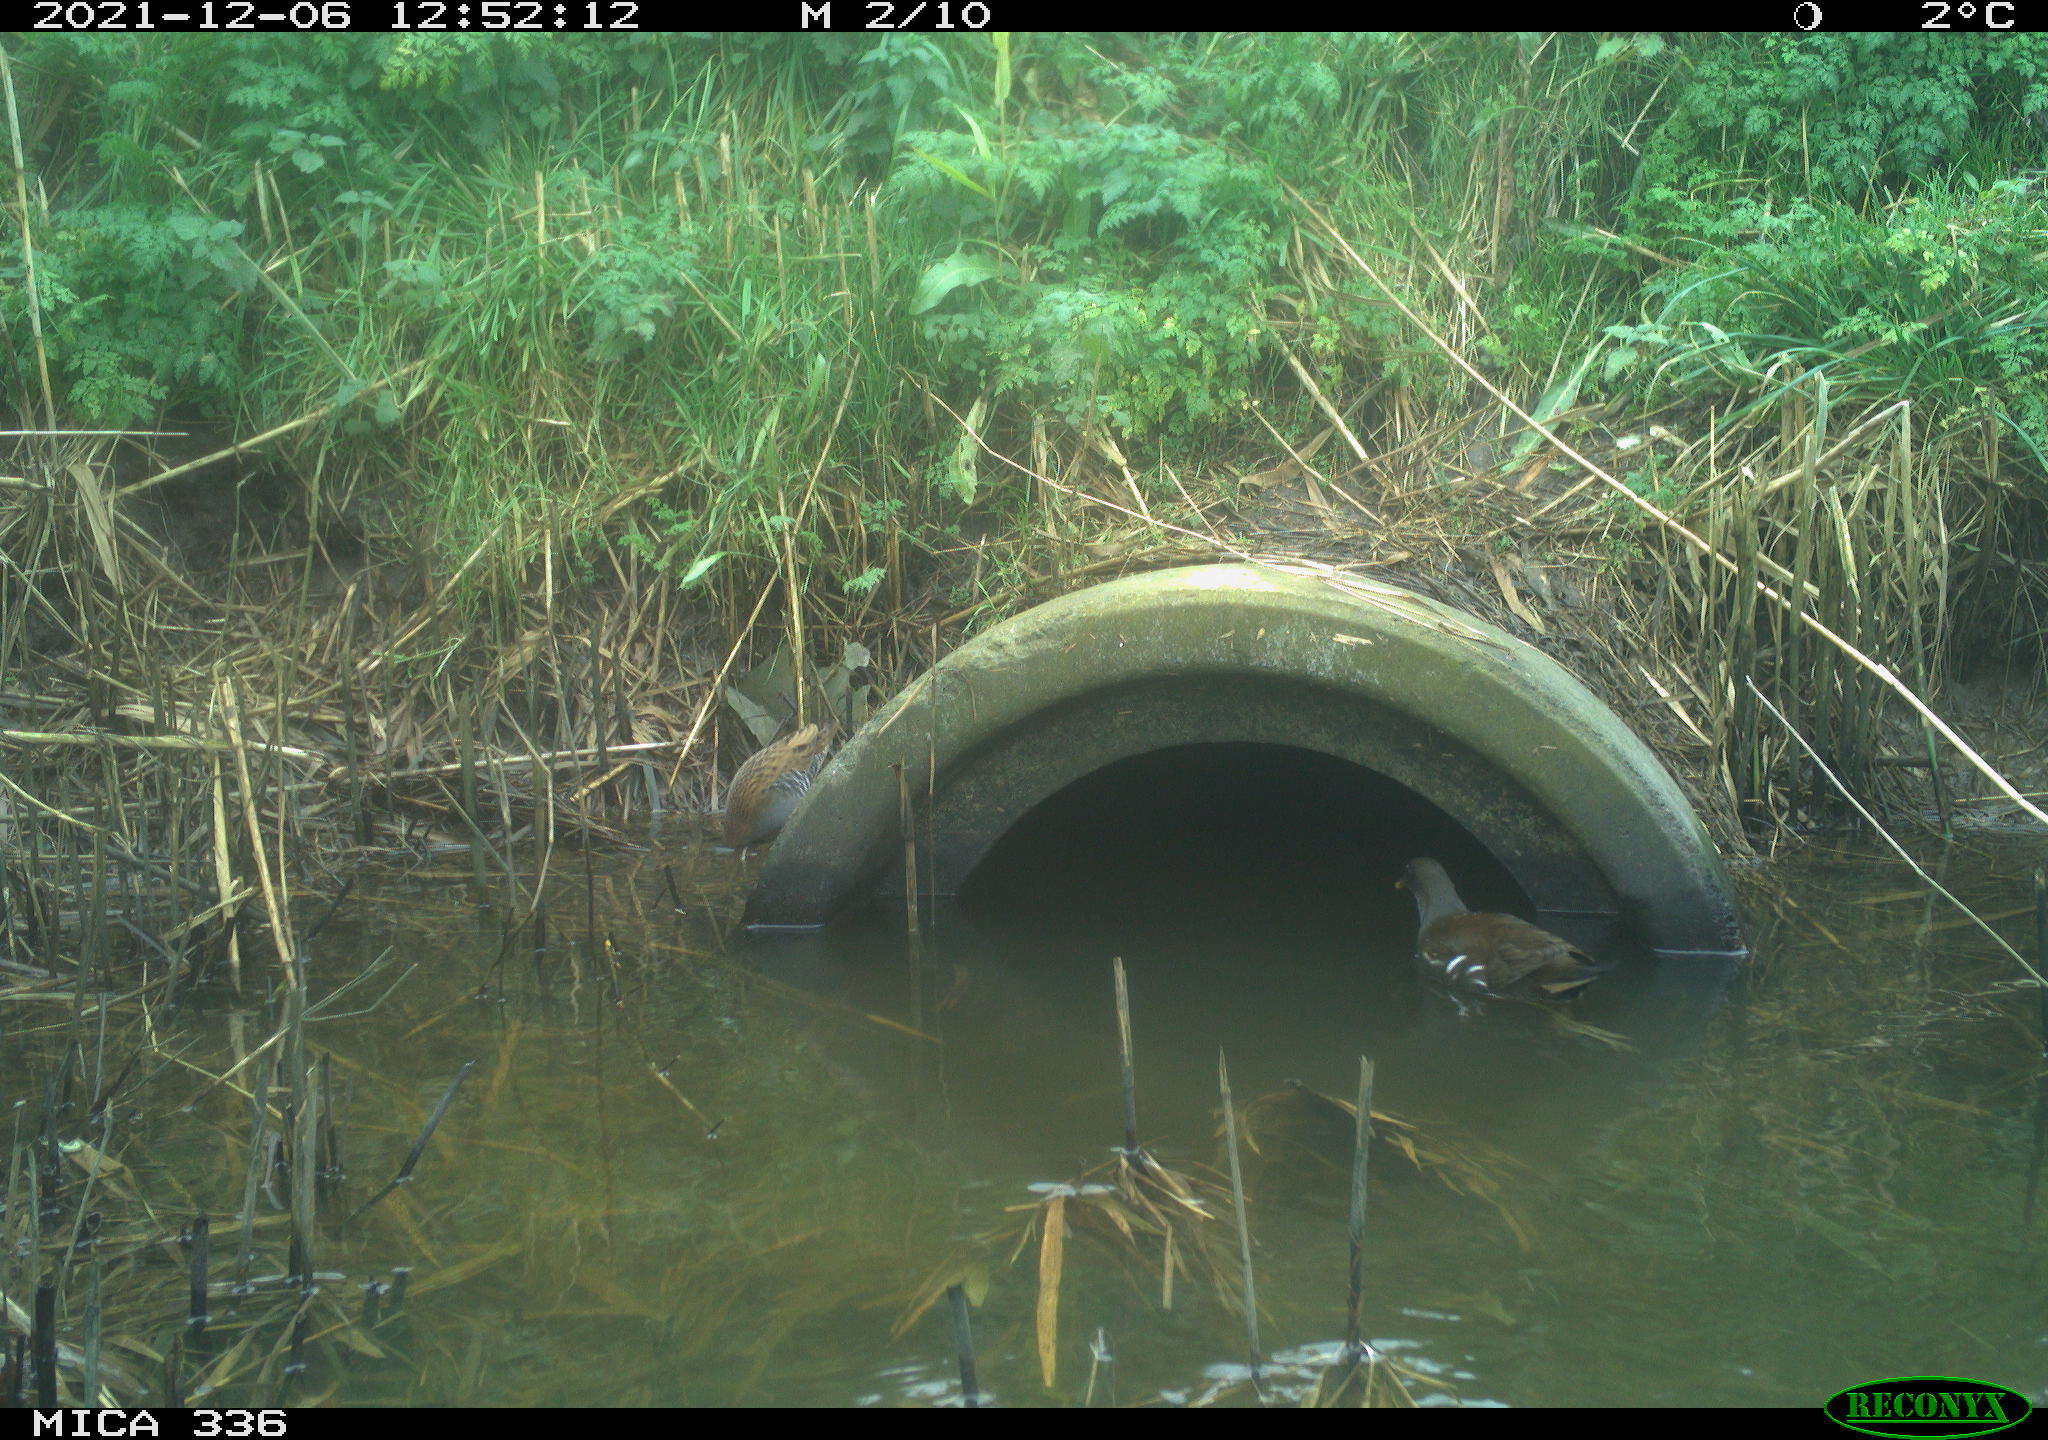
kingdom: Animalia
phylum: Chordata
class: Aves
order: Gruiformes
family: Rallidae
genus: Gallinula
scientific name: Gallinula chloropus
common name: Common moorhen
